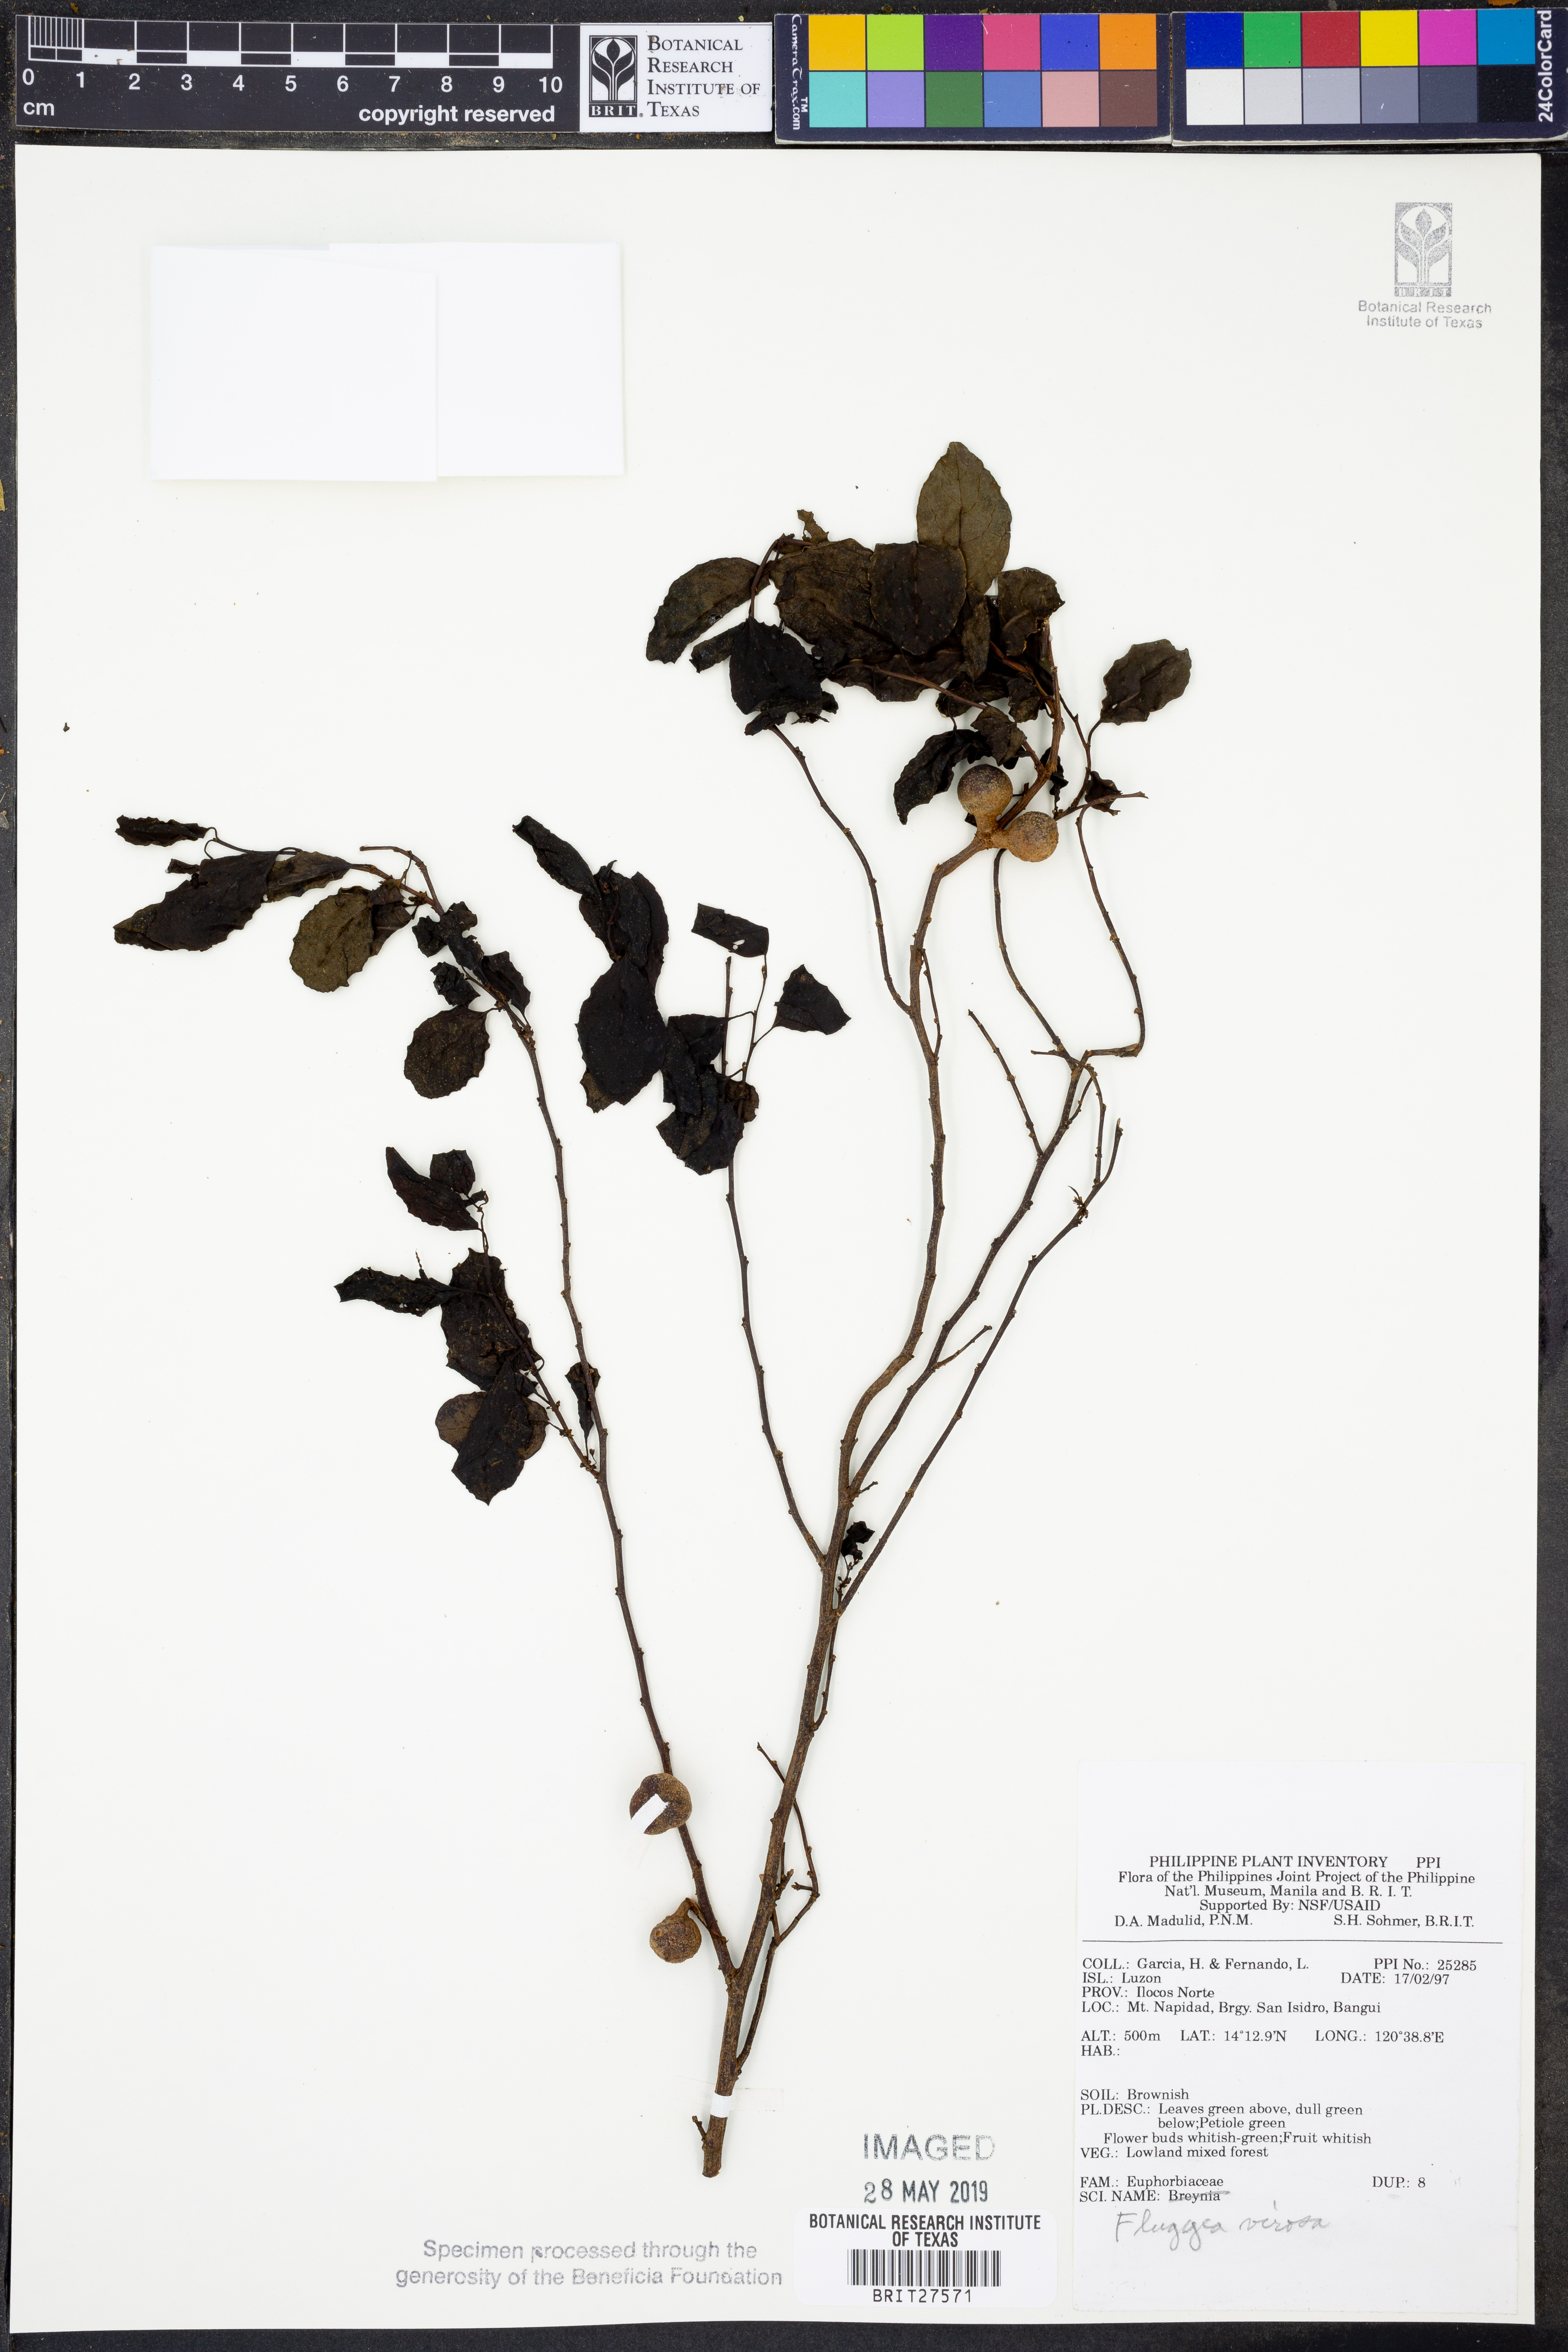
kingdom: Plantae
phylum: Tracheophyta
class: Magnoliopsida
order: Malpighiales
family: Phyllanthaceae
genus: Flueggea
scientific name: Flueggea virosa
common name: Common bushweed
